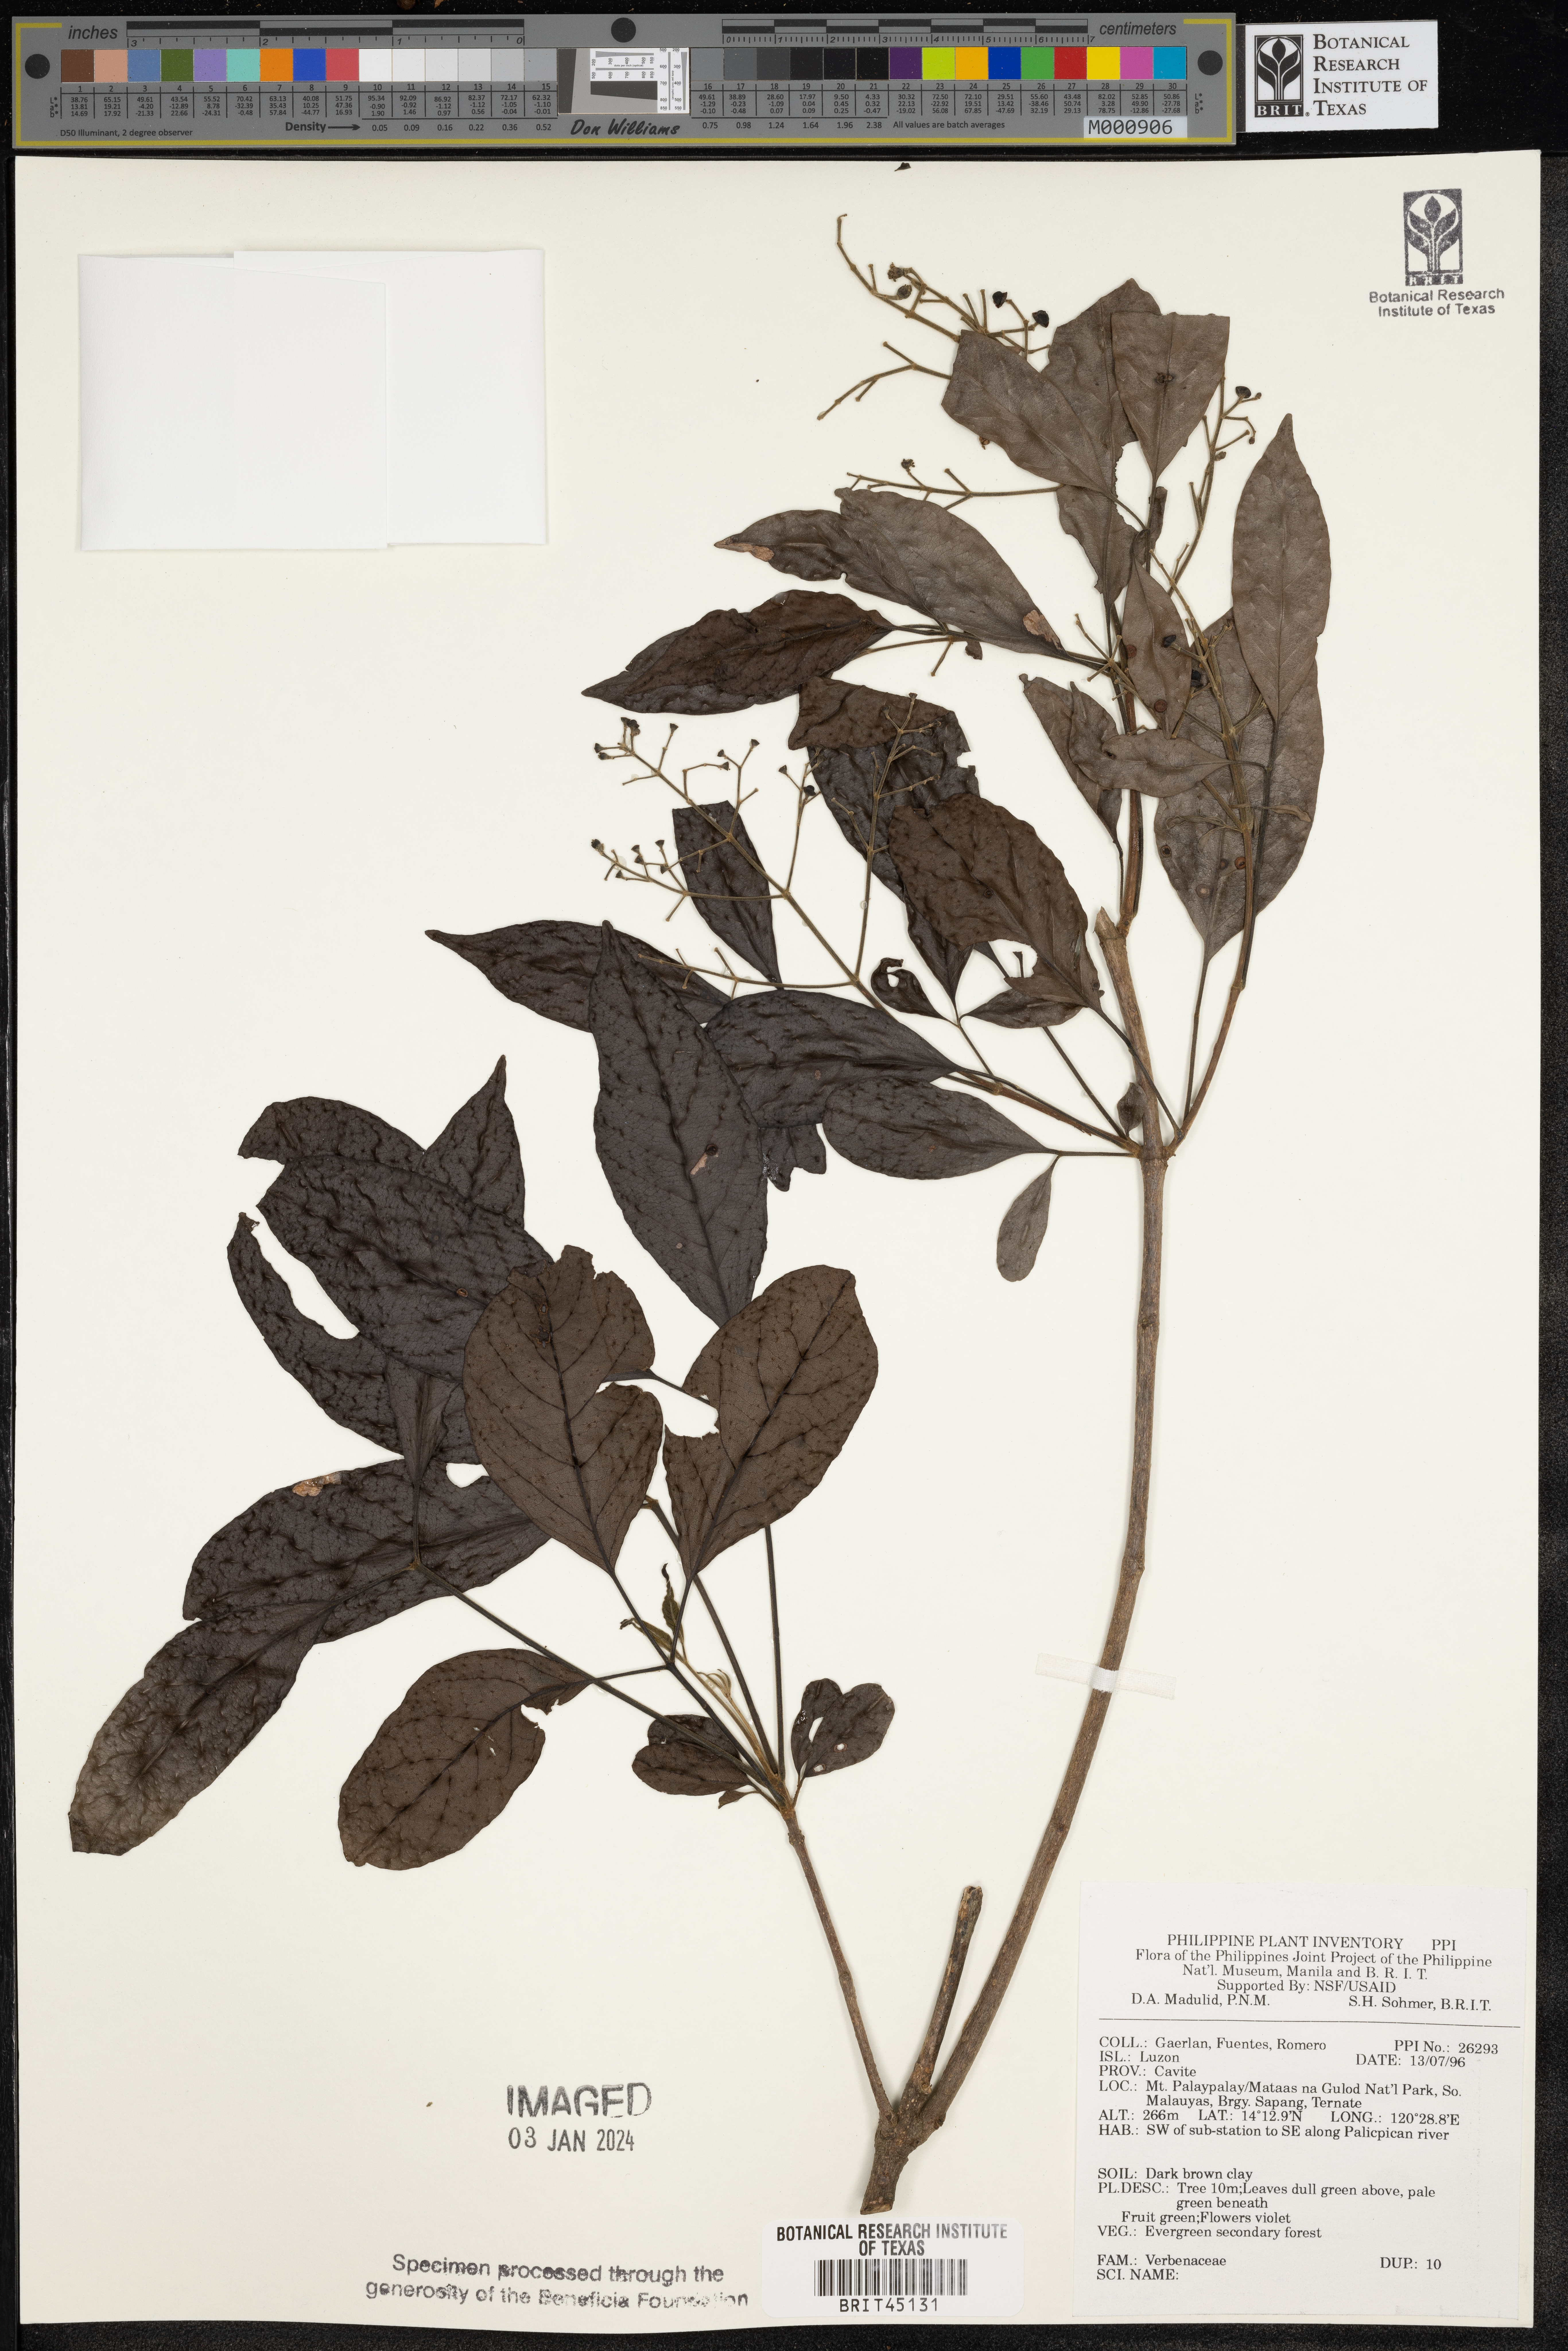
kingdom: Plantae
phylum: Tracheophyta
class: Magnoliopsida
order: Lamiales
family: Verbenaceae
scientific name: Verbenaceae
